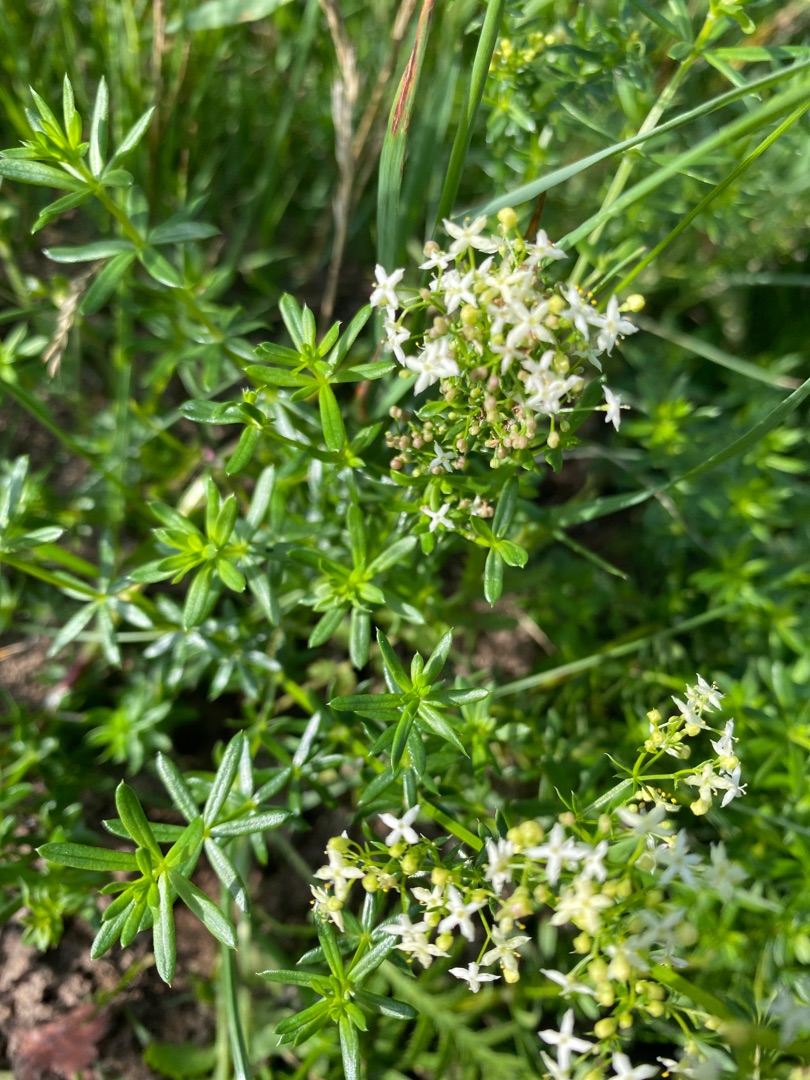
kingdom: Plantae
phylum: Tracheophyta
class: Magnoliopsida
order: Gentianales
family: Rubiaceae
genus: Galium
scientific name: Galium mollugo
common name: Hvid snerre
